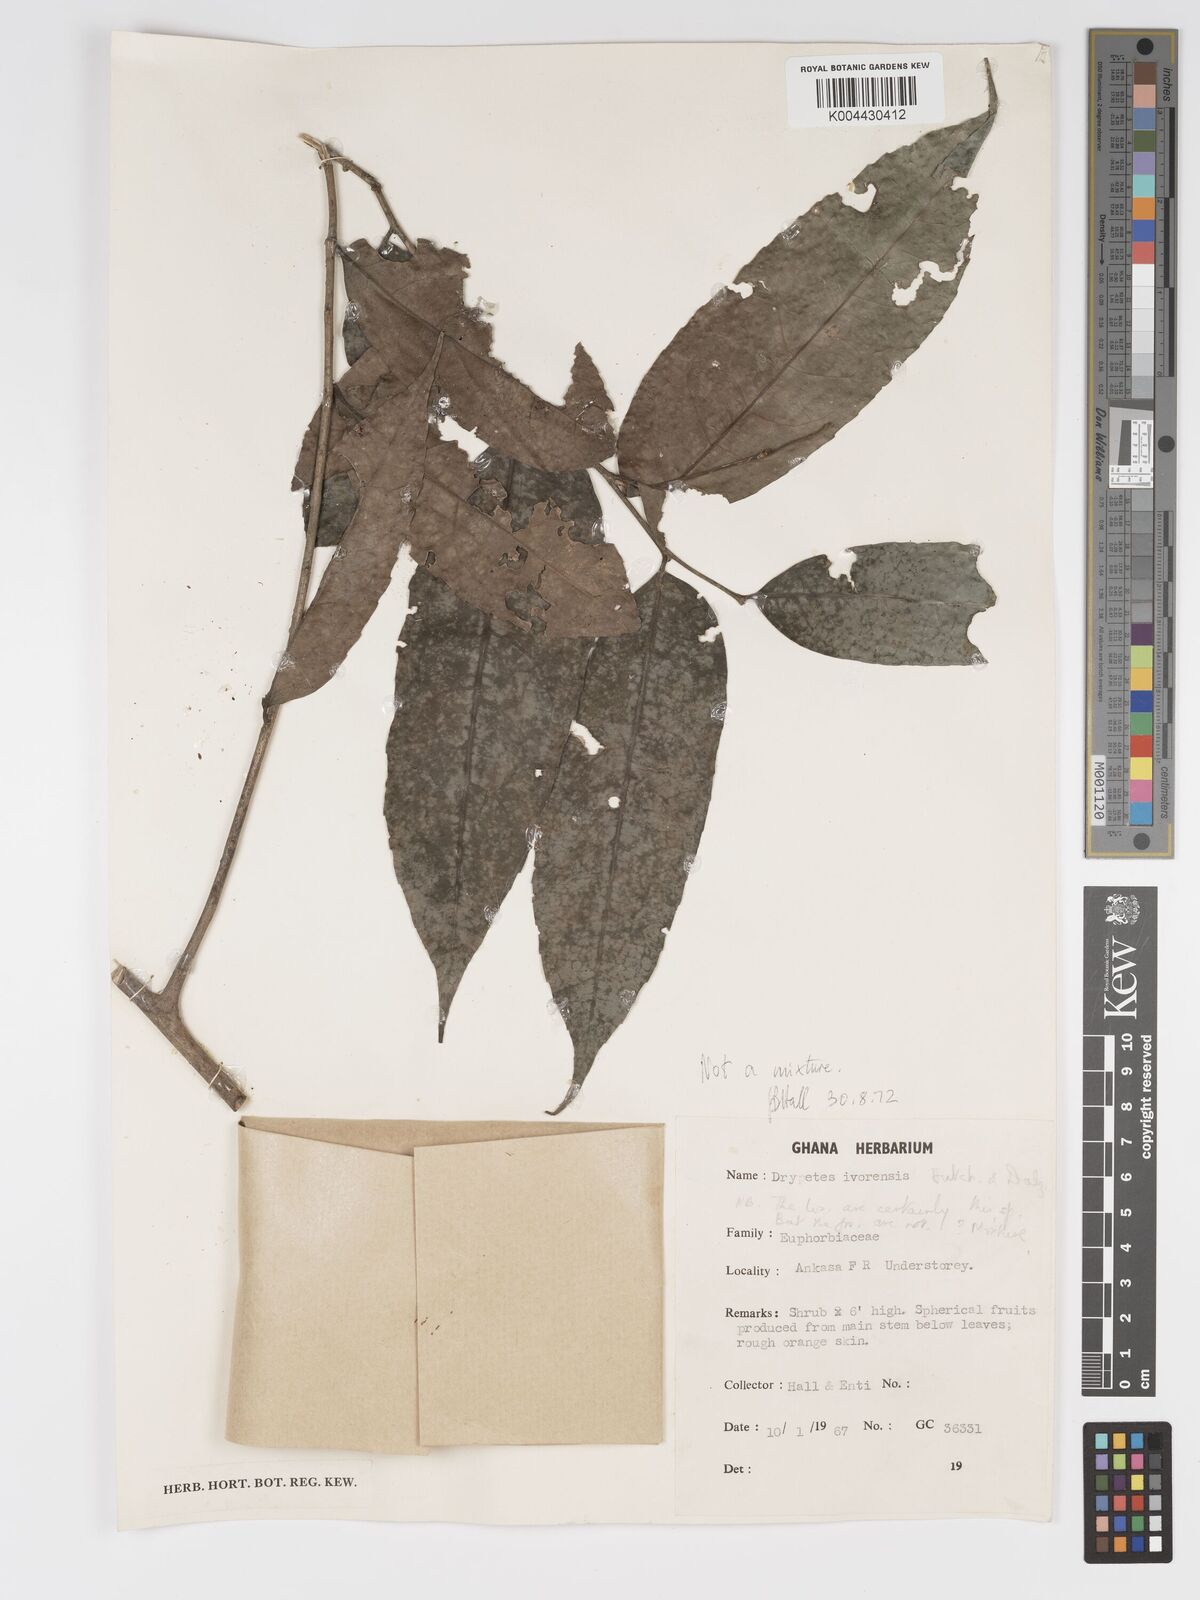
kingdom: Plantae
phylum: Tracheophyta
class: Magnoliopsida
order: Malpighiales
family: Putranjivaceae
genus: Drypetes
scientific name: Drypetes ivorensis
